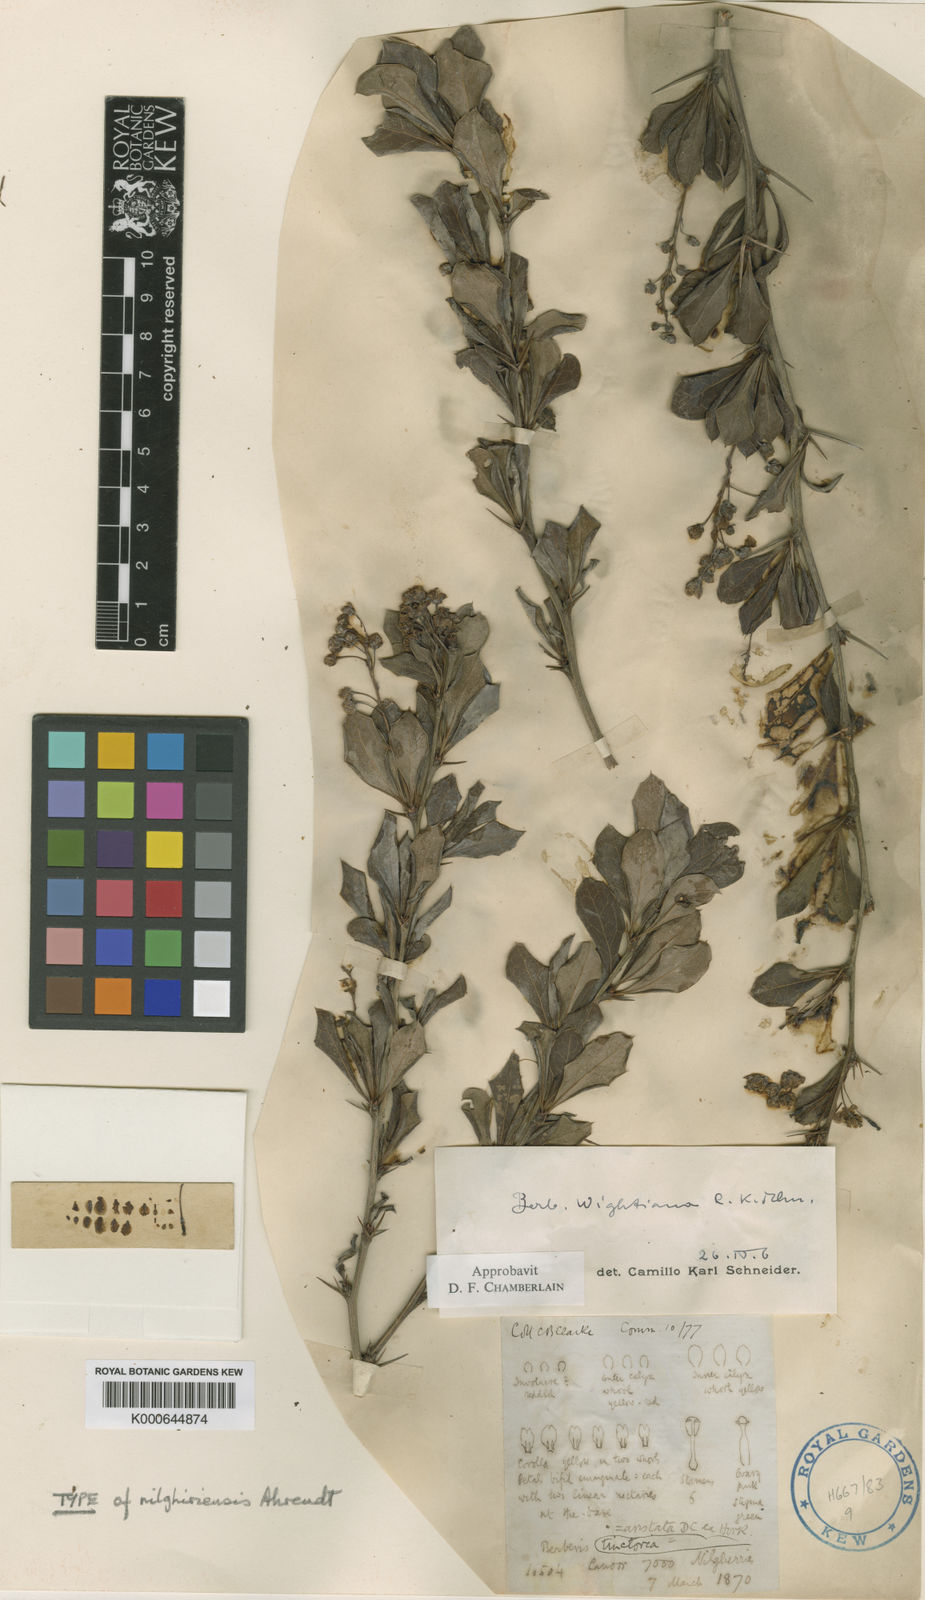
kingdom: Plantae
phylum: Tracheophyta
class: Magnoliopsida
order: Ranunculales
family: Berberidaceae
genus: Berberis
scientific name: Berberis nilghiriensis
